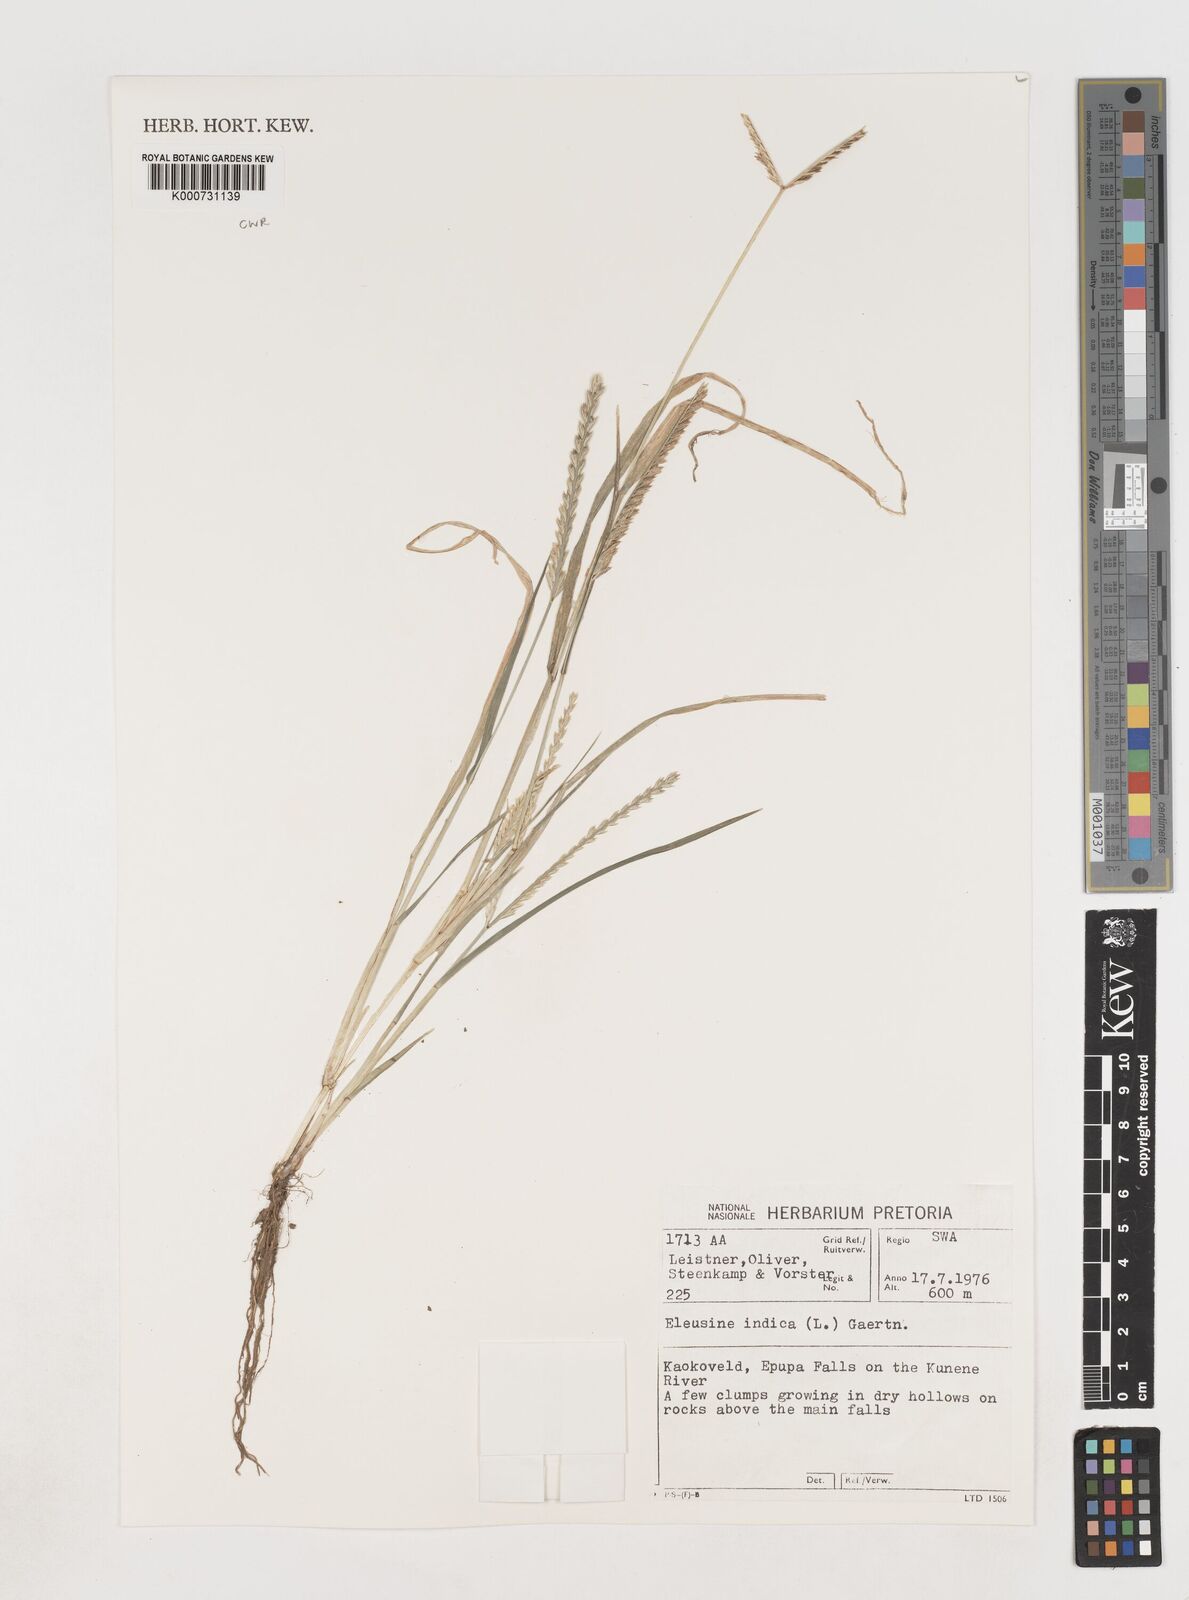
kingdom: Plantae
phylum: Tracheophyta
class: Liliopsida
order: Poales
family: Poaceae
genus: Eleusine
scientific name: Eleusine indica
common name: Yard-grass
